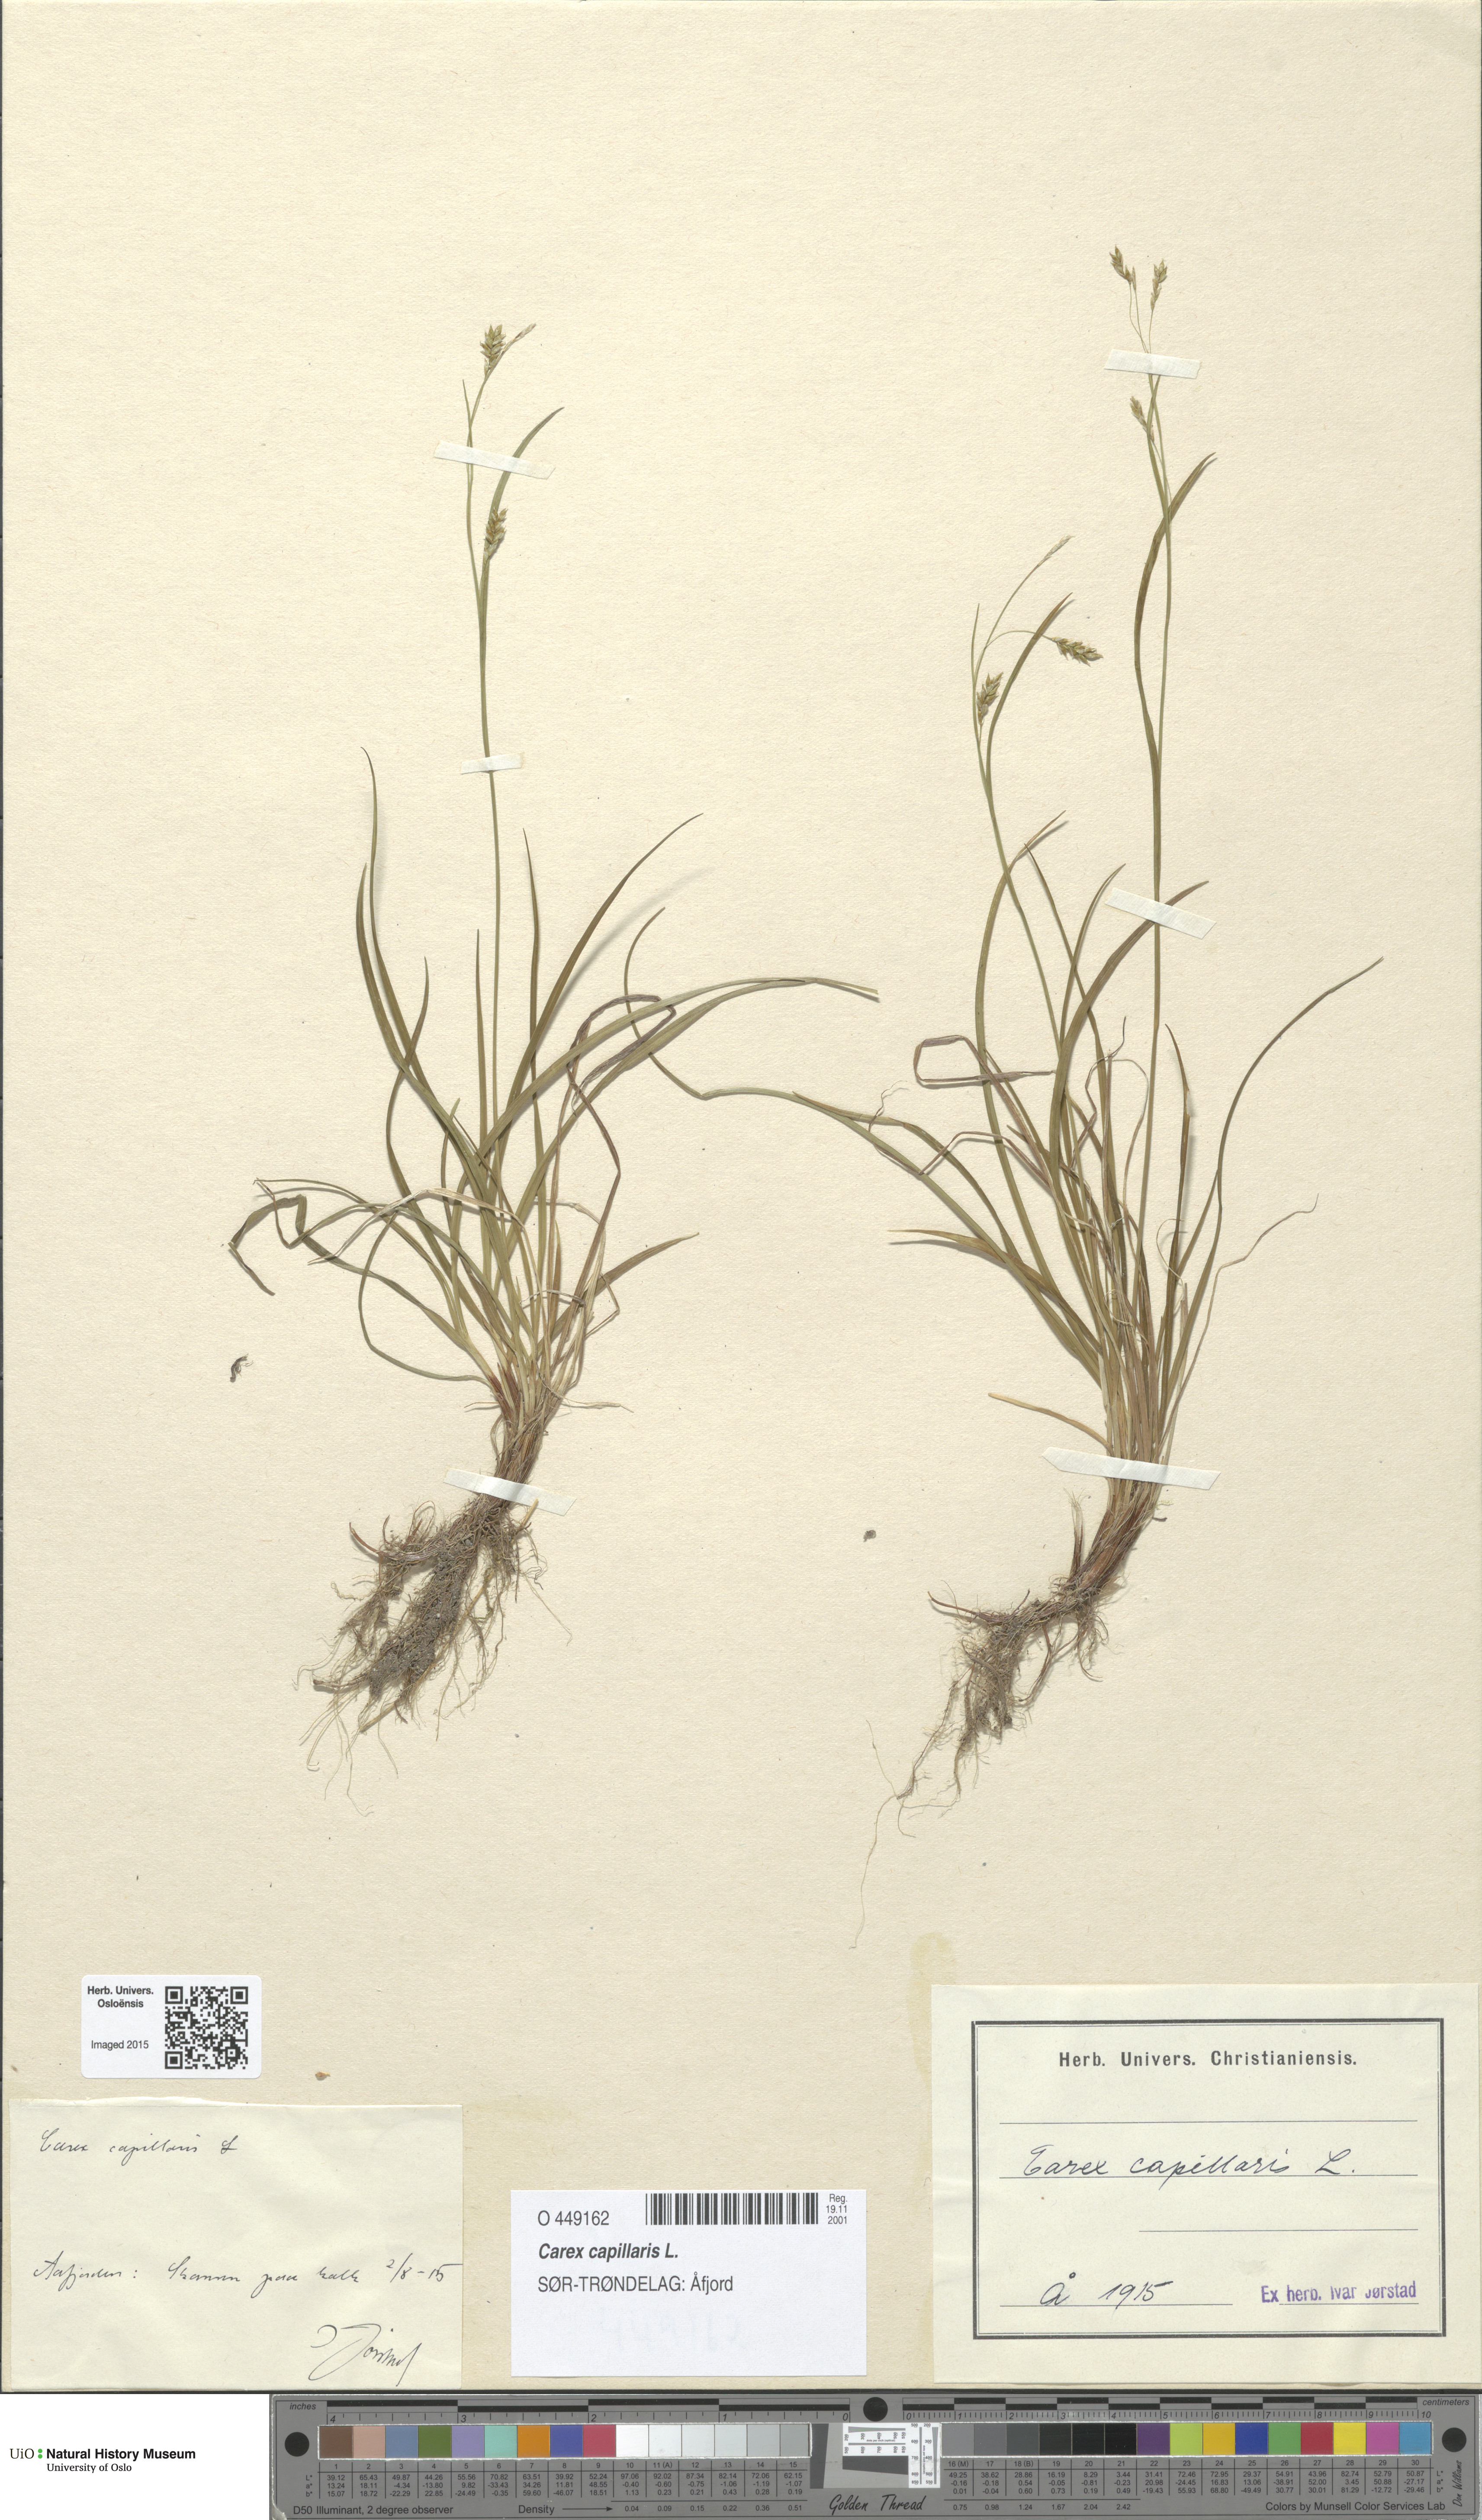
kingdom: Plantae
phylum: Tracheophyta
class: Liliopsida
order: Poales
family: Cyperaceae
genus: Carex
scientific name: Carex capillaris
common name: Hair sedge
